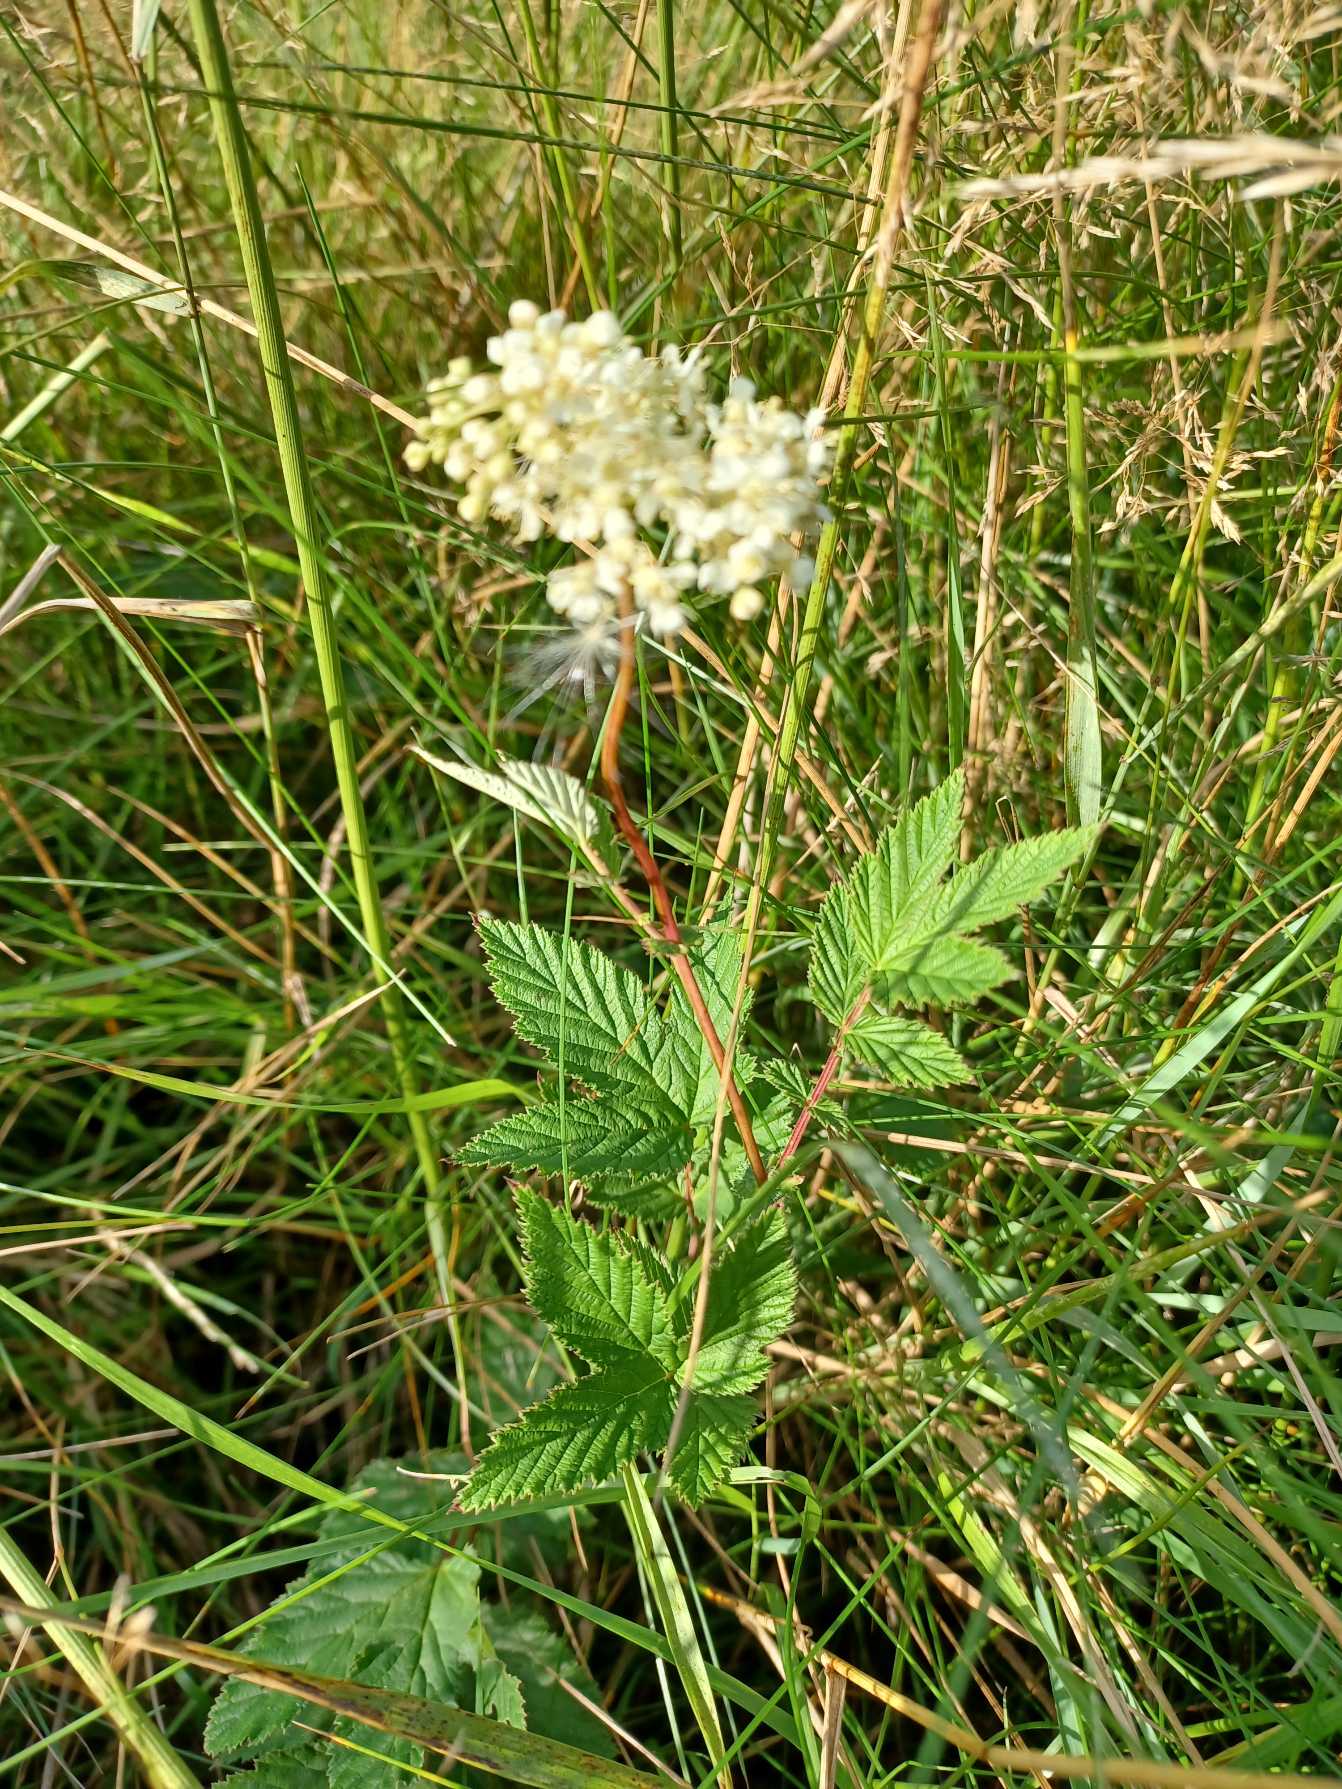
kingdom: Plantae
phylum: Tracheophyta
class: Magnoliopsida
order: Rosales
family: Rosaceae
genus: Filipendula
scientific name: Filipendula ulmaria
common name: Almindelig mjødurt
